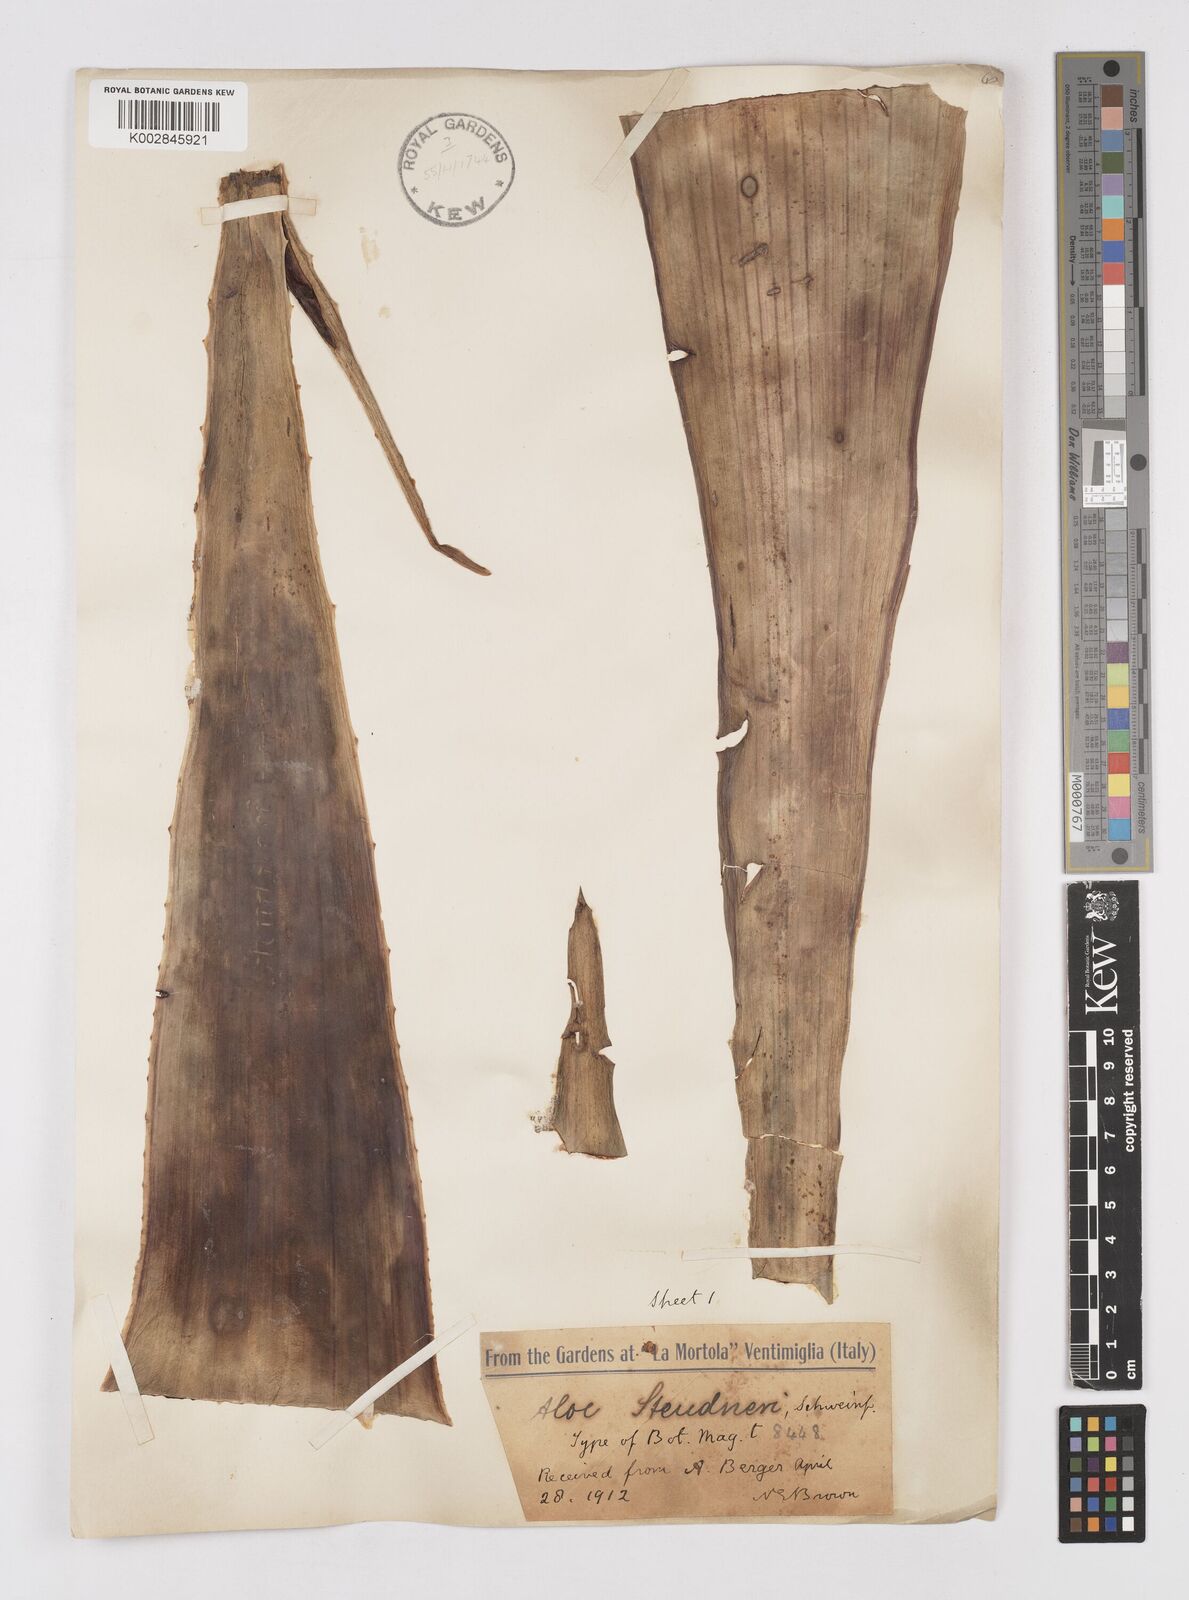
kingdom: Plantae
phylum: Tracheophyta
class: Liliopsida
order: Asparagales
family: Asphodelaceae
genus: Aloe
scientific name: Aloe steudneri
